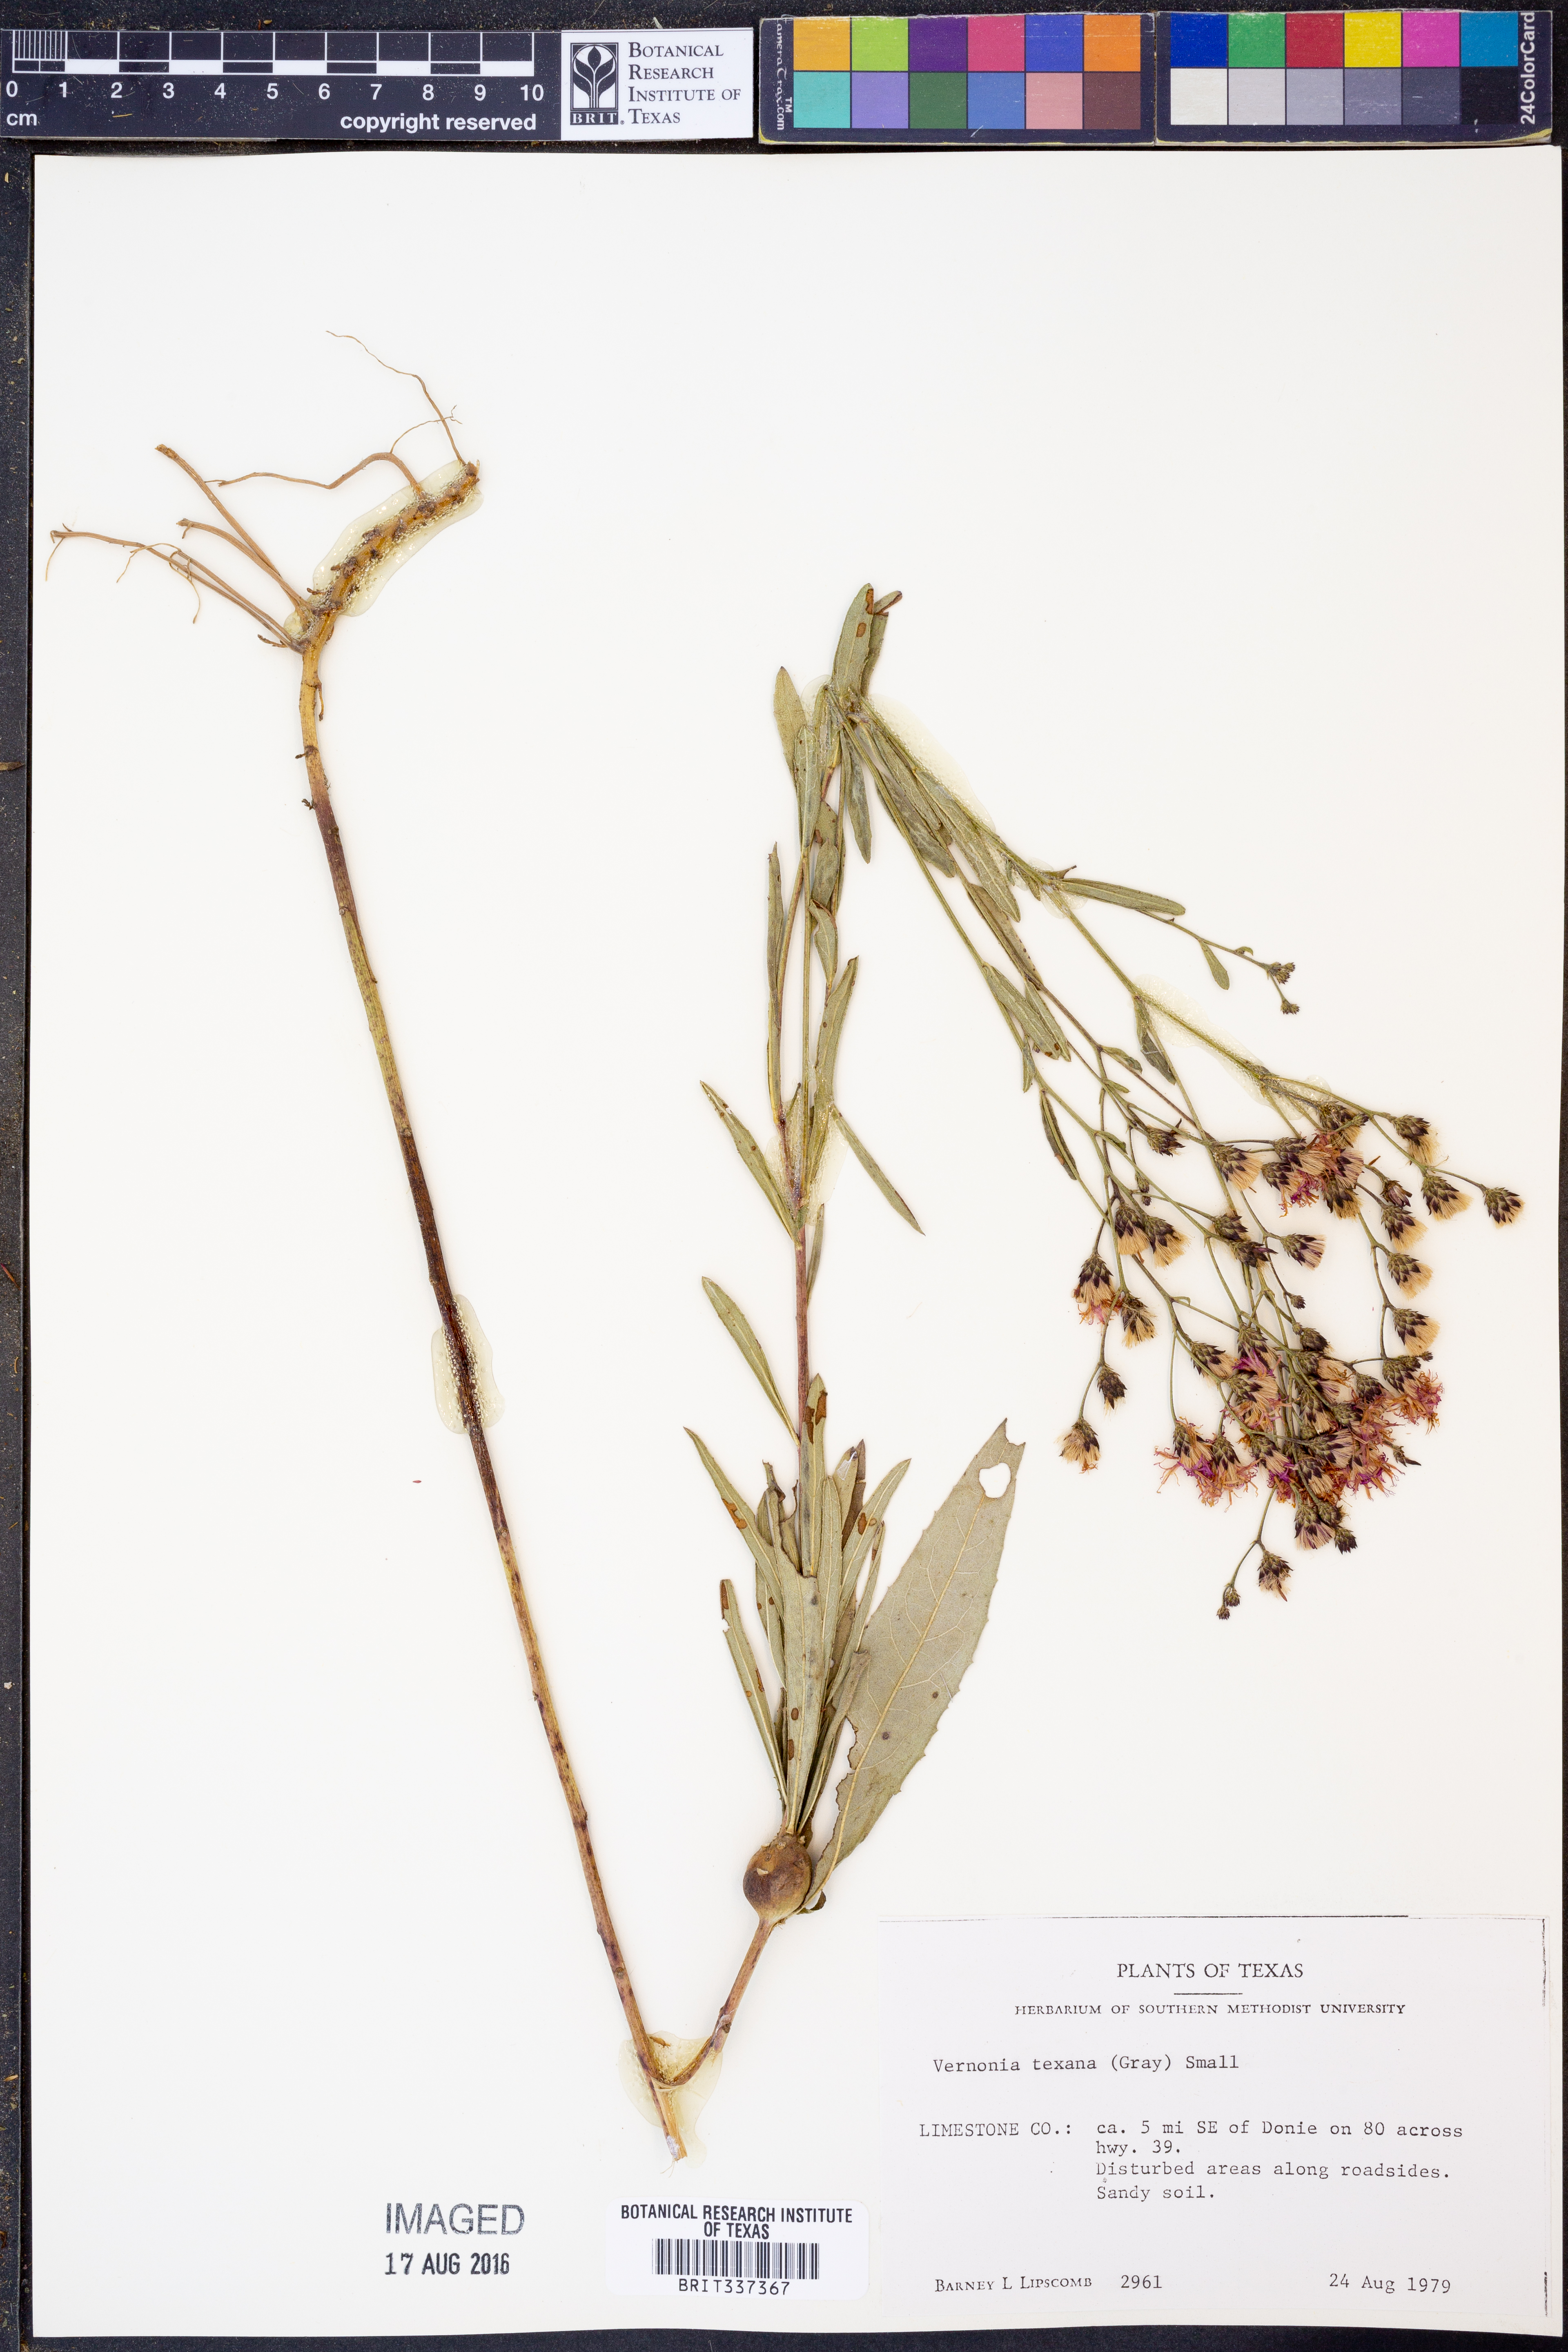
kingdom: Plantae
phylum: Tracheophyta
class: Magnoliopsida
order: Asterales
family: Asteraceae
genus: Vernonia
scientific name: Vernonia texana
